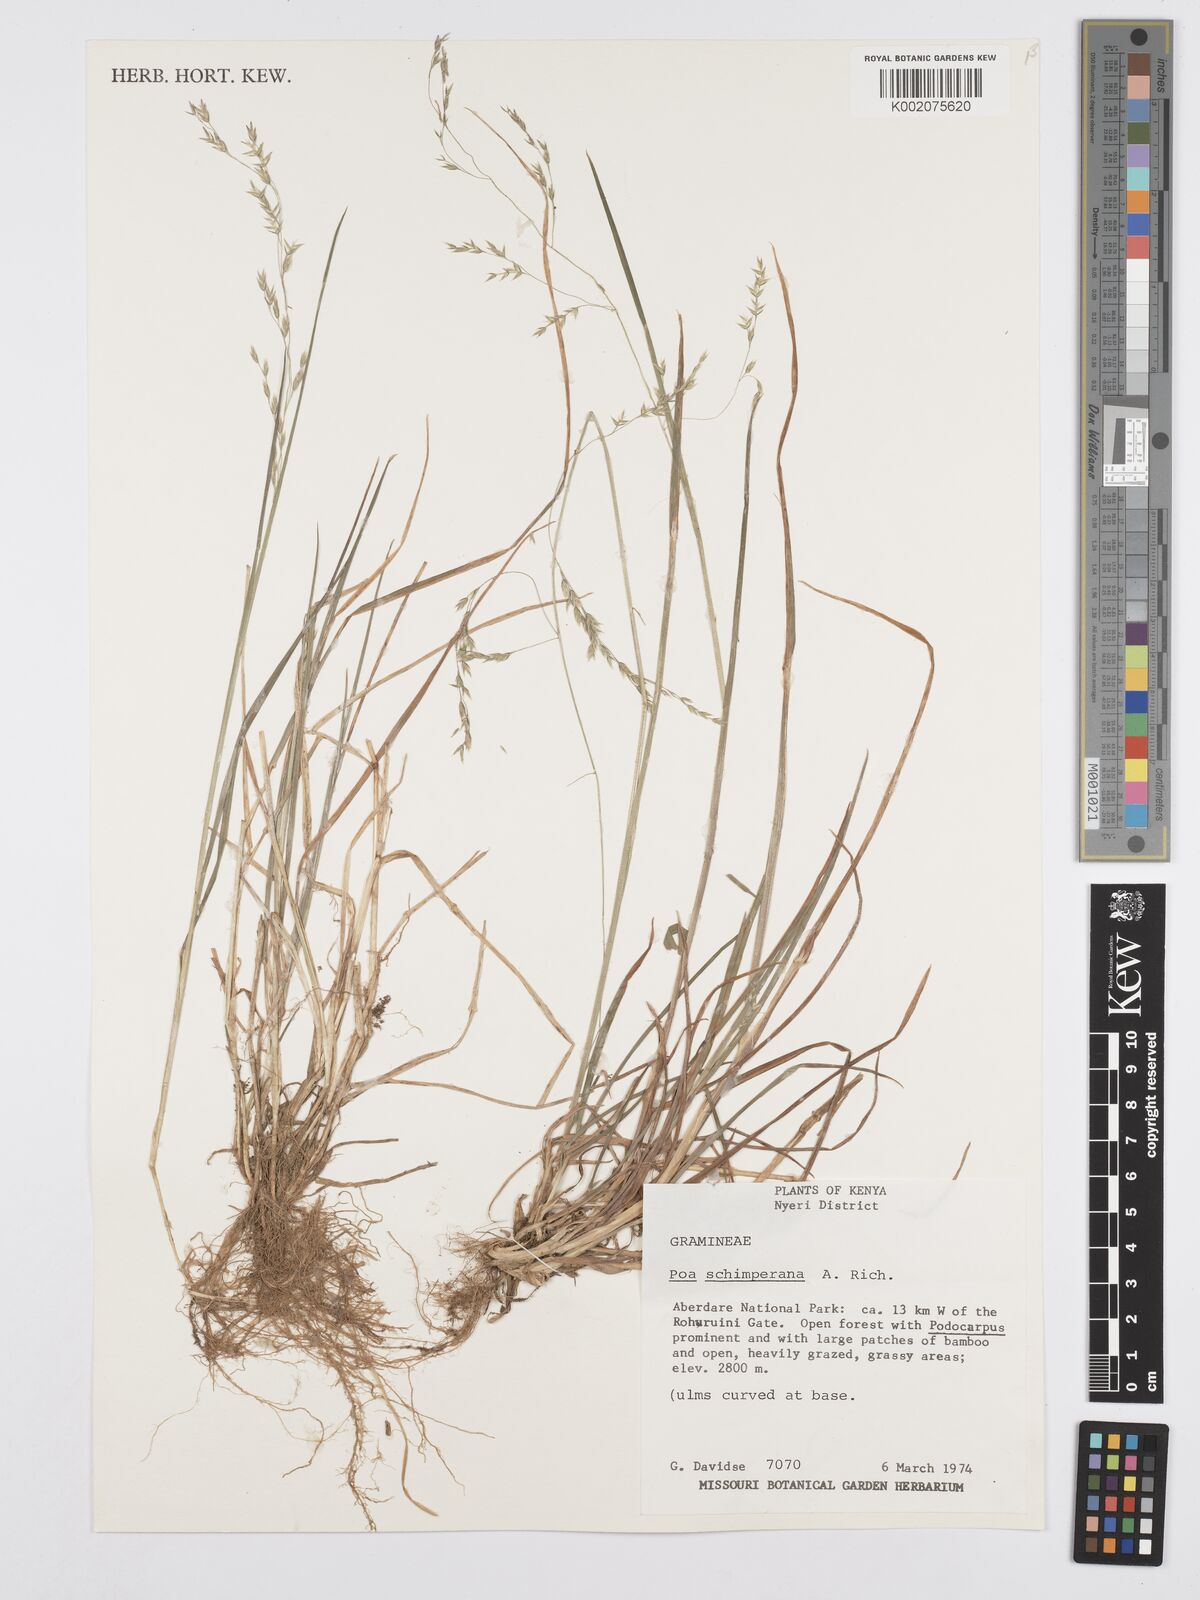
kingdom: Plantae
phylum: Tracheophyta
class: Liliopsida
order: Poales
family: Poaceae
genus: Poa
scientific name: Poa schimperiana
